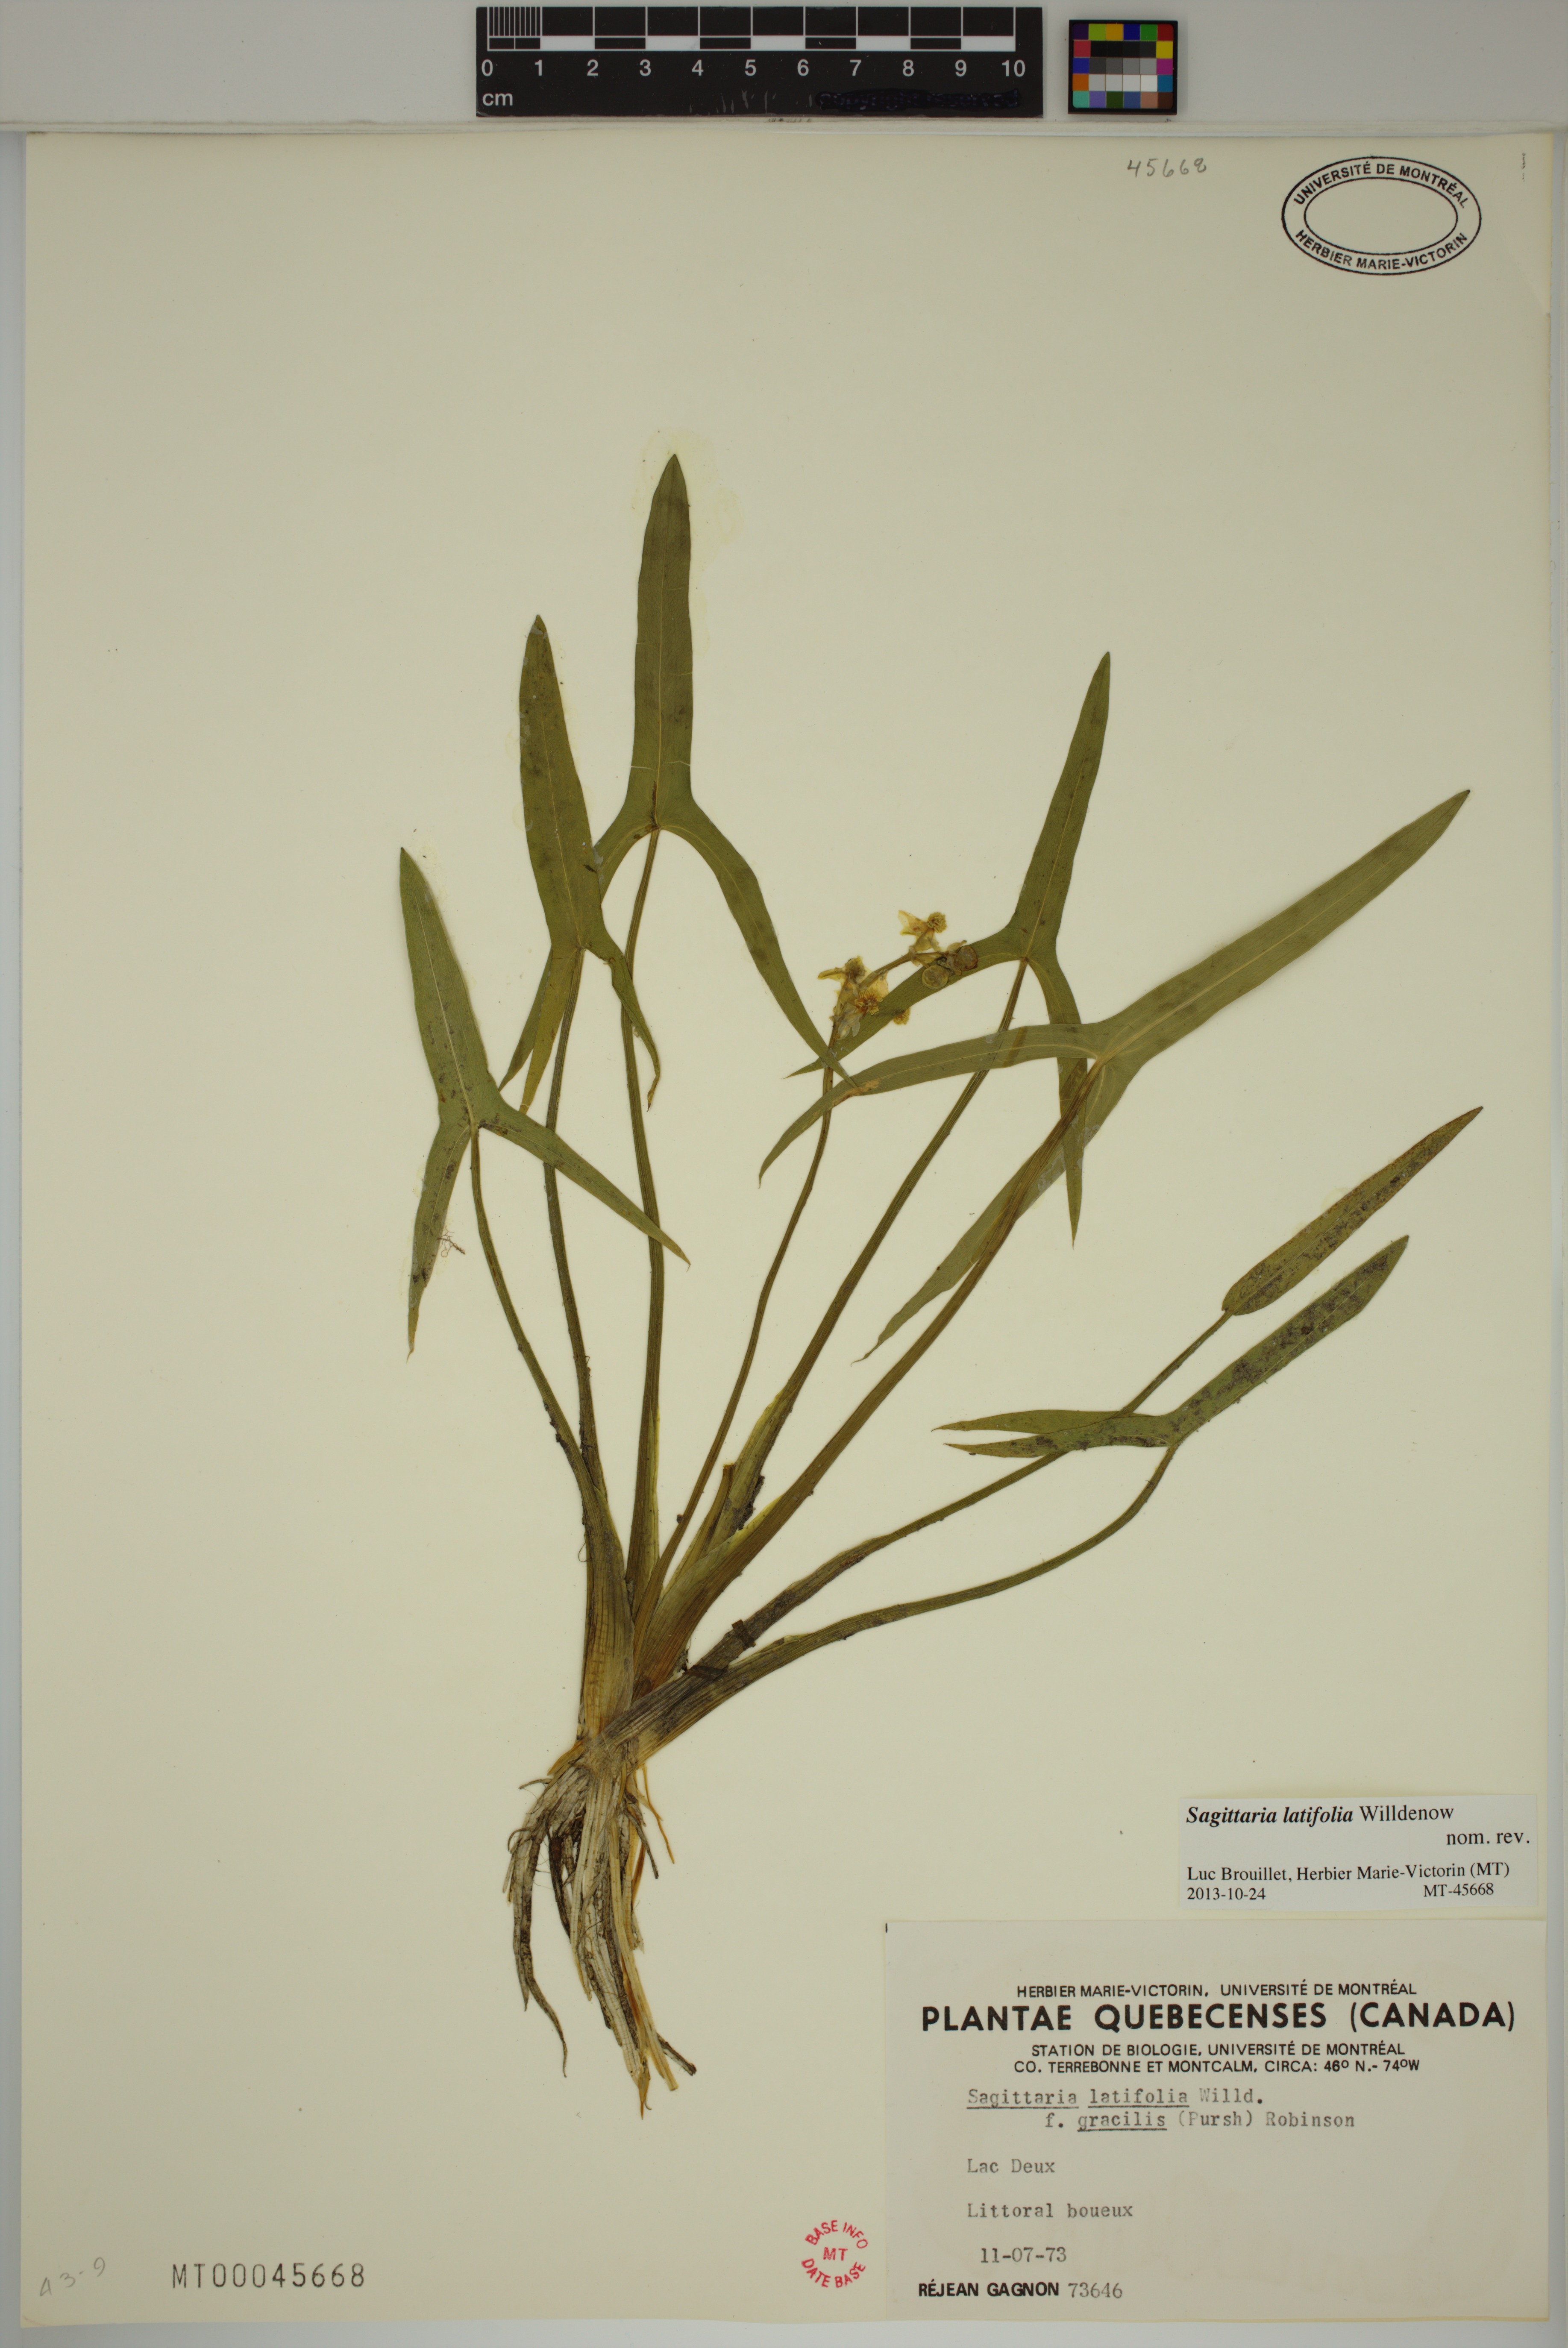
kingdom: Plantae
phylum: Tracheophyta
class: Liliopsida
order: Alismatales
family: Alismataceae
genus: Sagittaria
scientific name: Sagittaria latifolia
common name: Duck-potato
